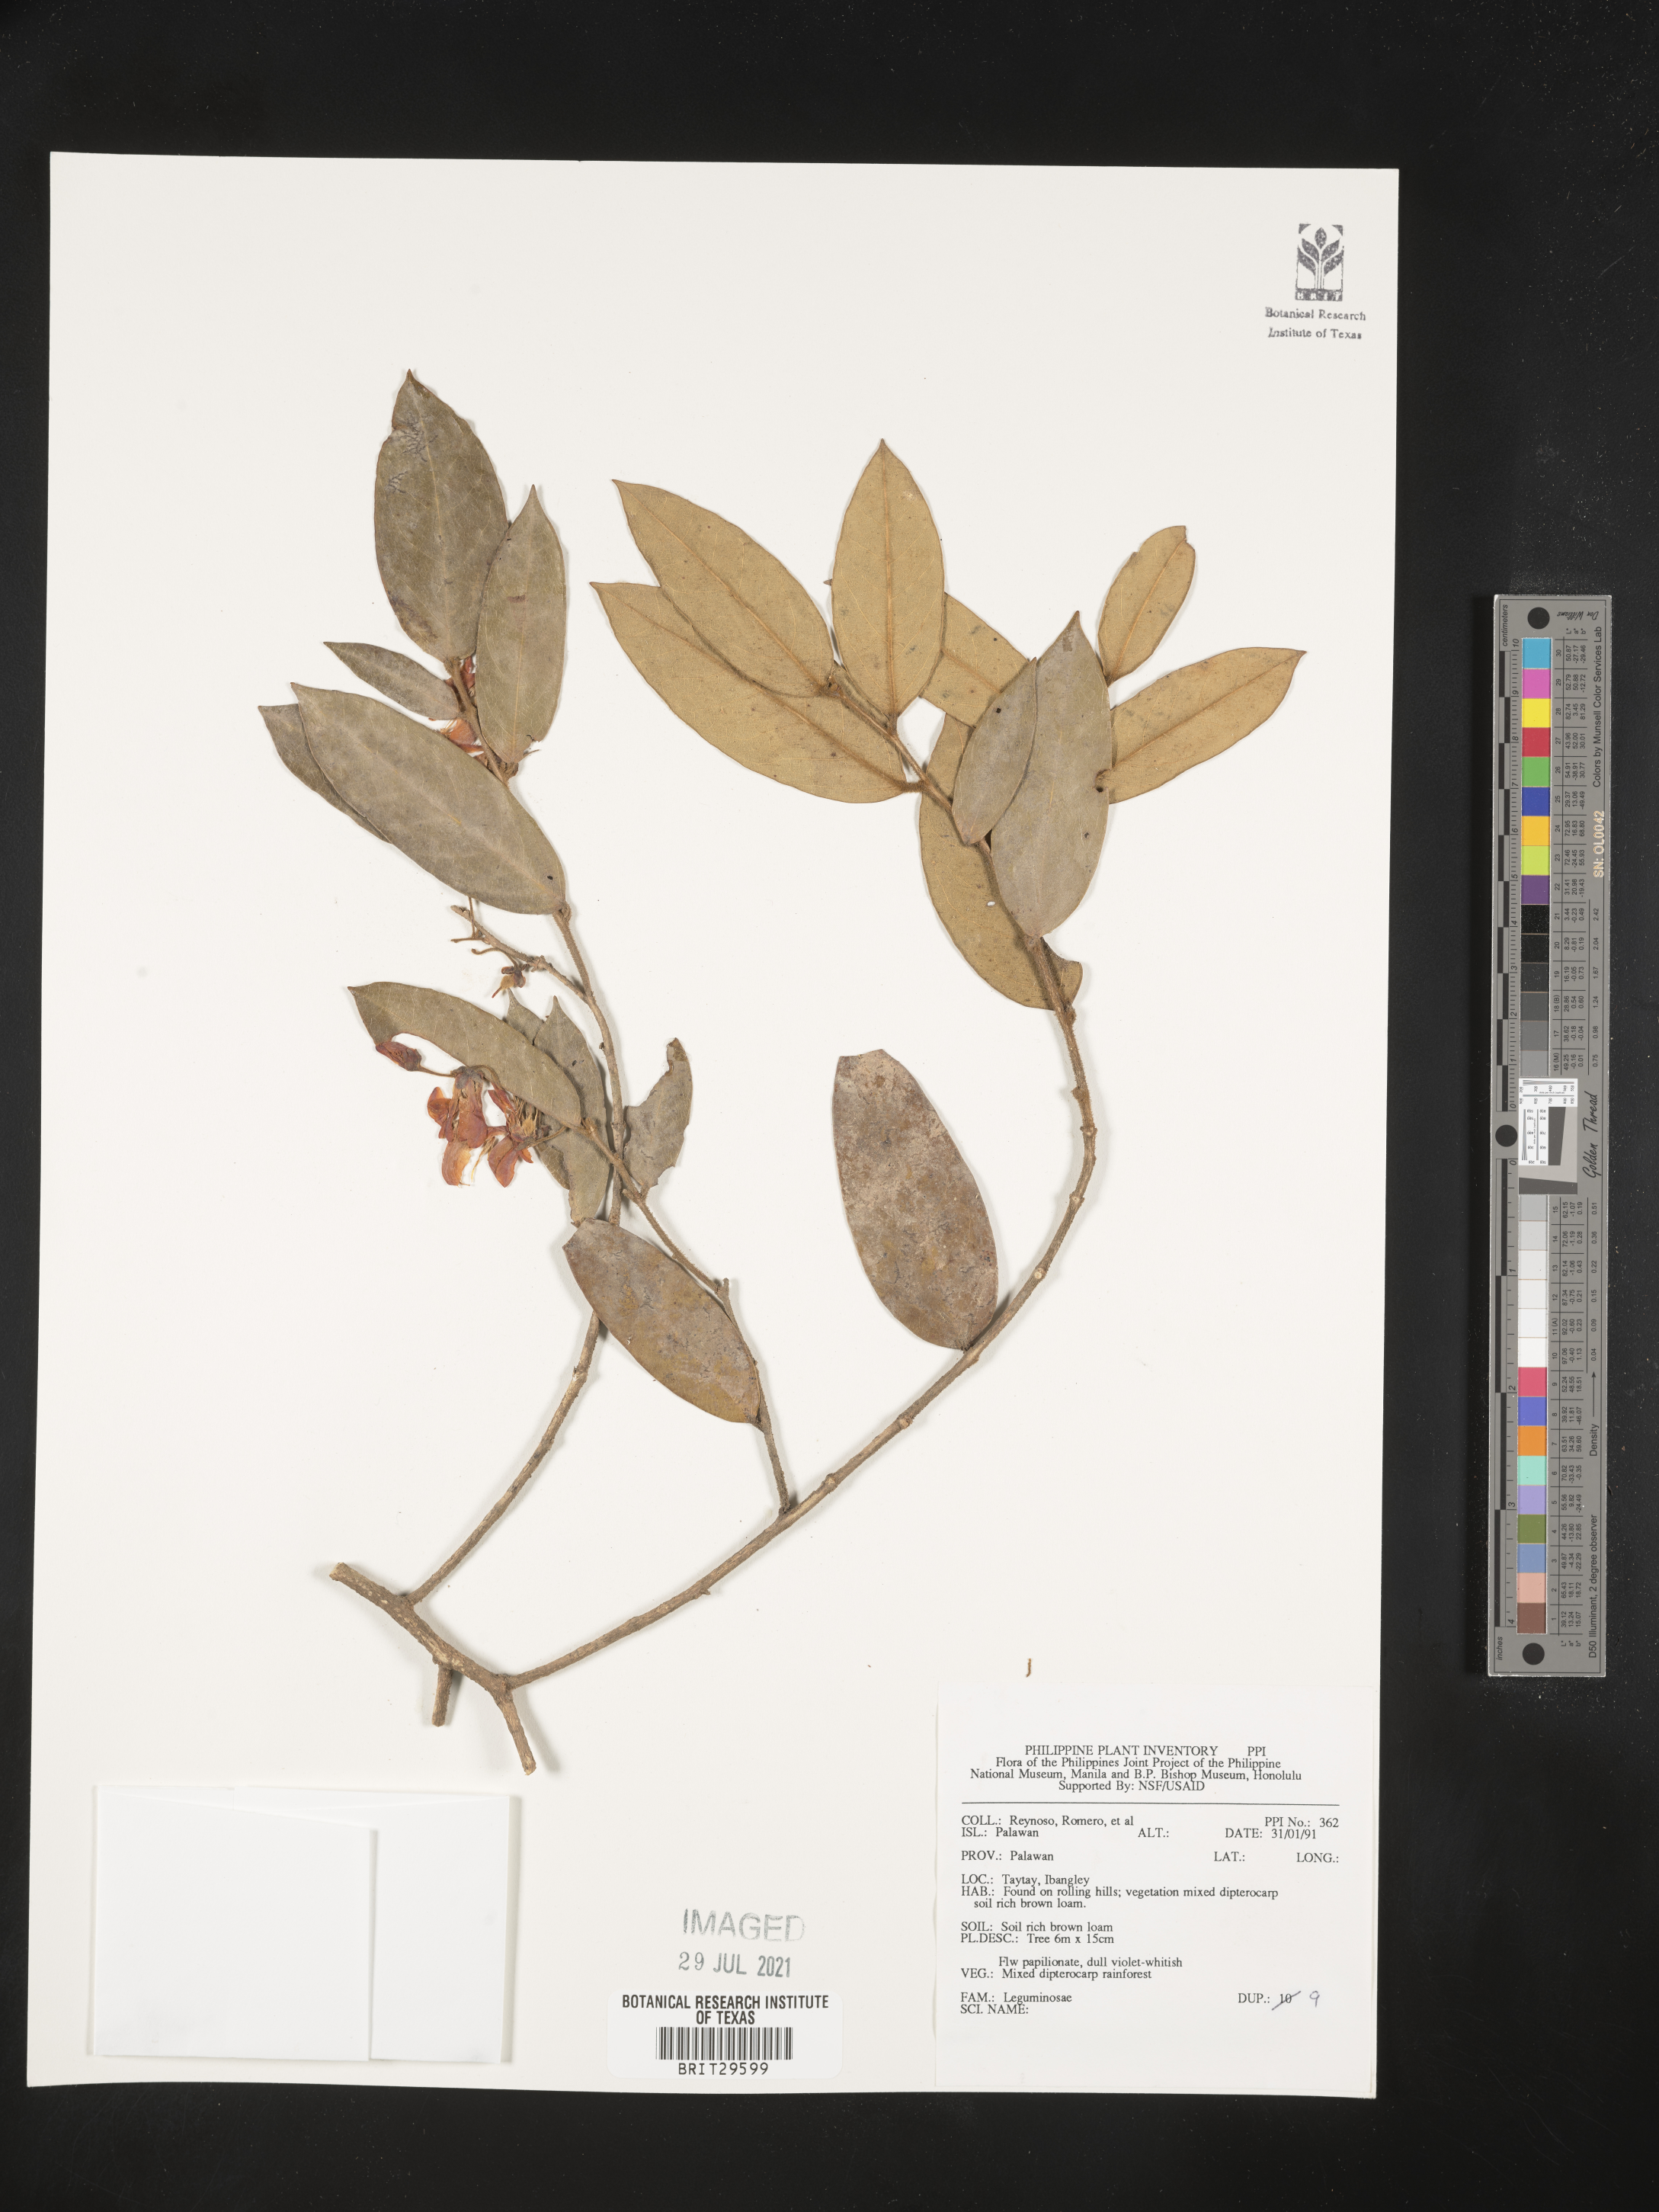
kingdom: Plantae
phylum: Tracheophyta
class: Magnoliopsida
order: Fabales
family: Fabaceae
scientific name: Fabaceae
